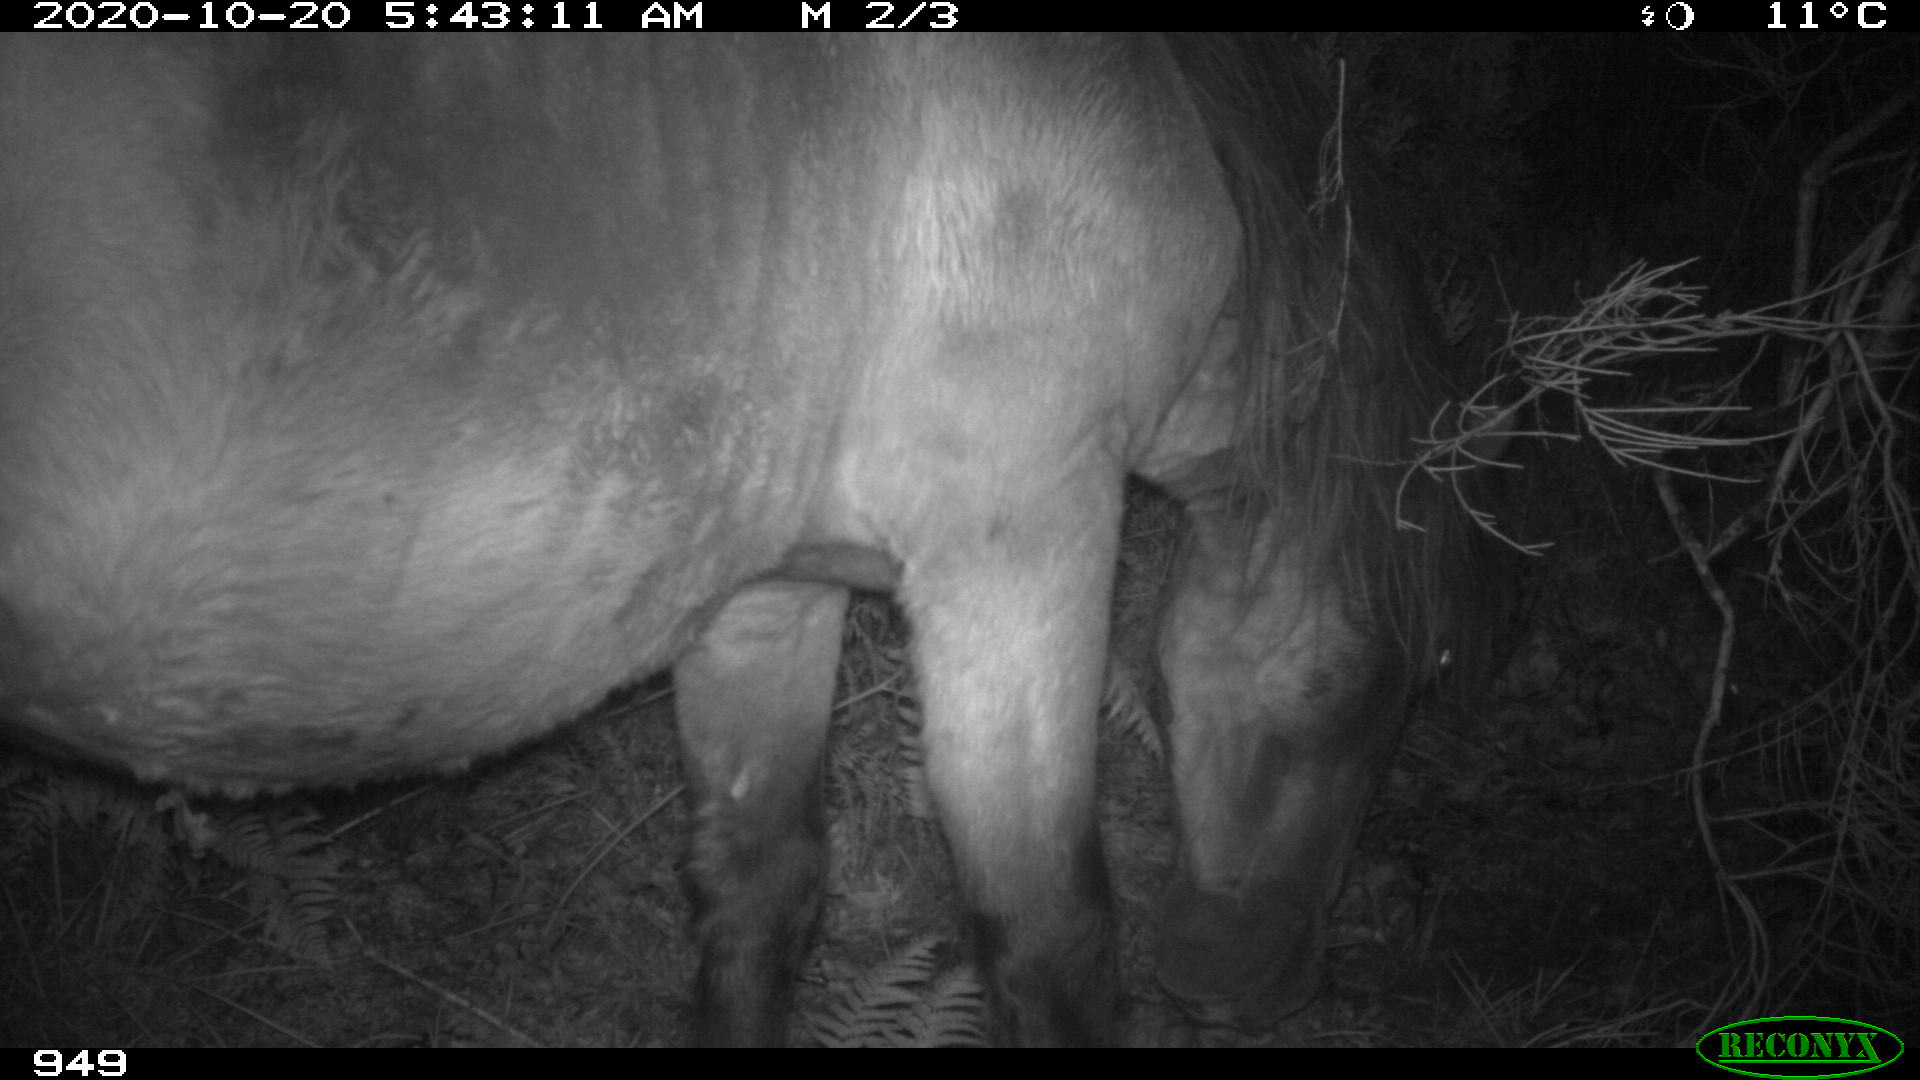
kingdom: Animalia
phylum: Chordata
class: Mammalia
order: Perissodactyla
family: Equidae
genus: Equus
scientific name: Equus caballus
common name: Horse
